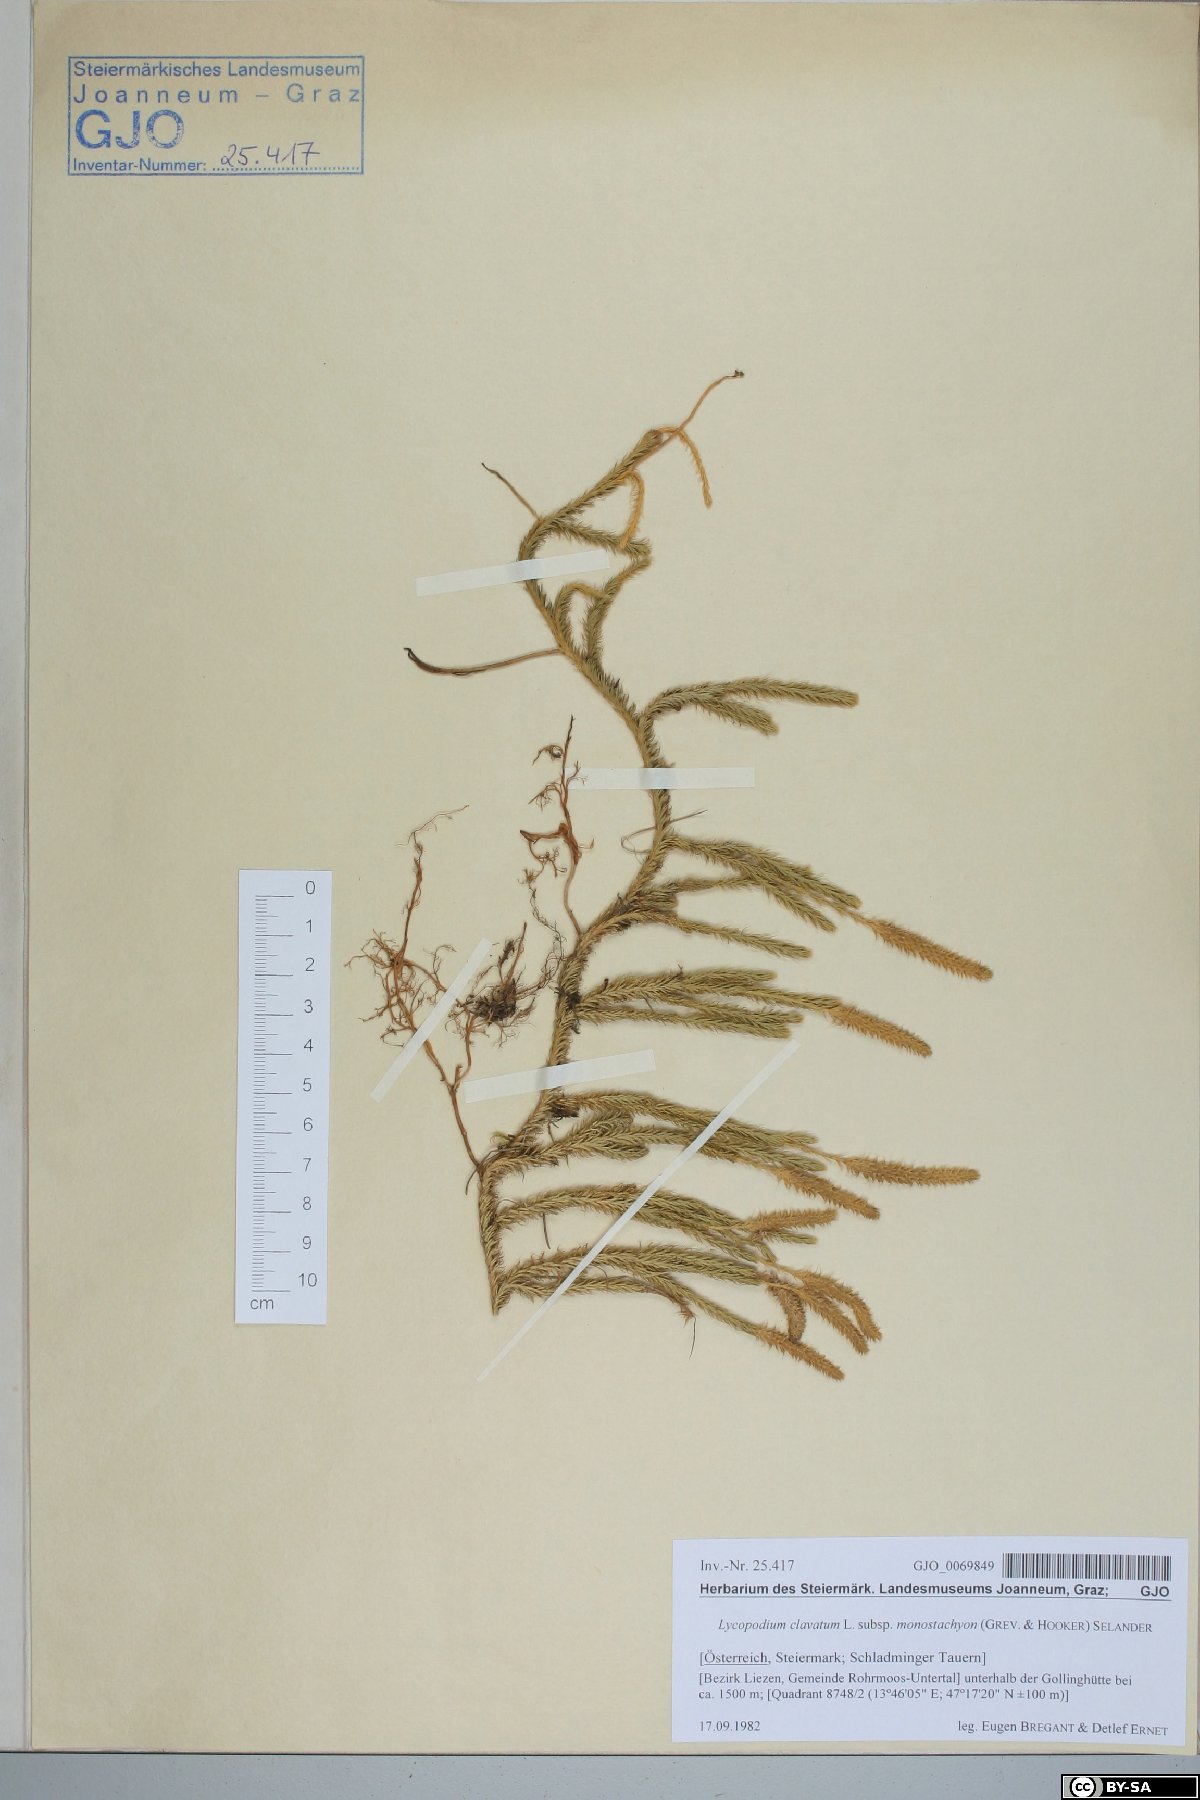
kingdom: Plantae
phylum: Tracheophyta
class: Lycopodiopsida
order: Lycopodiales
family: Lycopodiaceae
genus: Lycopodium
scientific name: Lycopodium lagopus
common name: One-cone clubmoss
